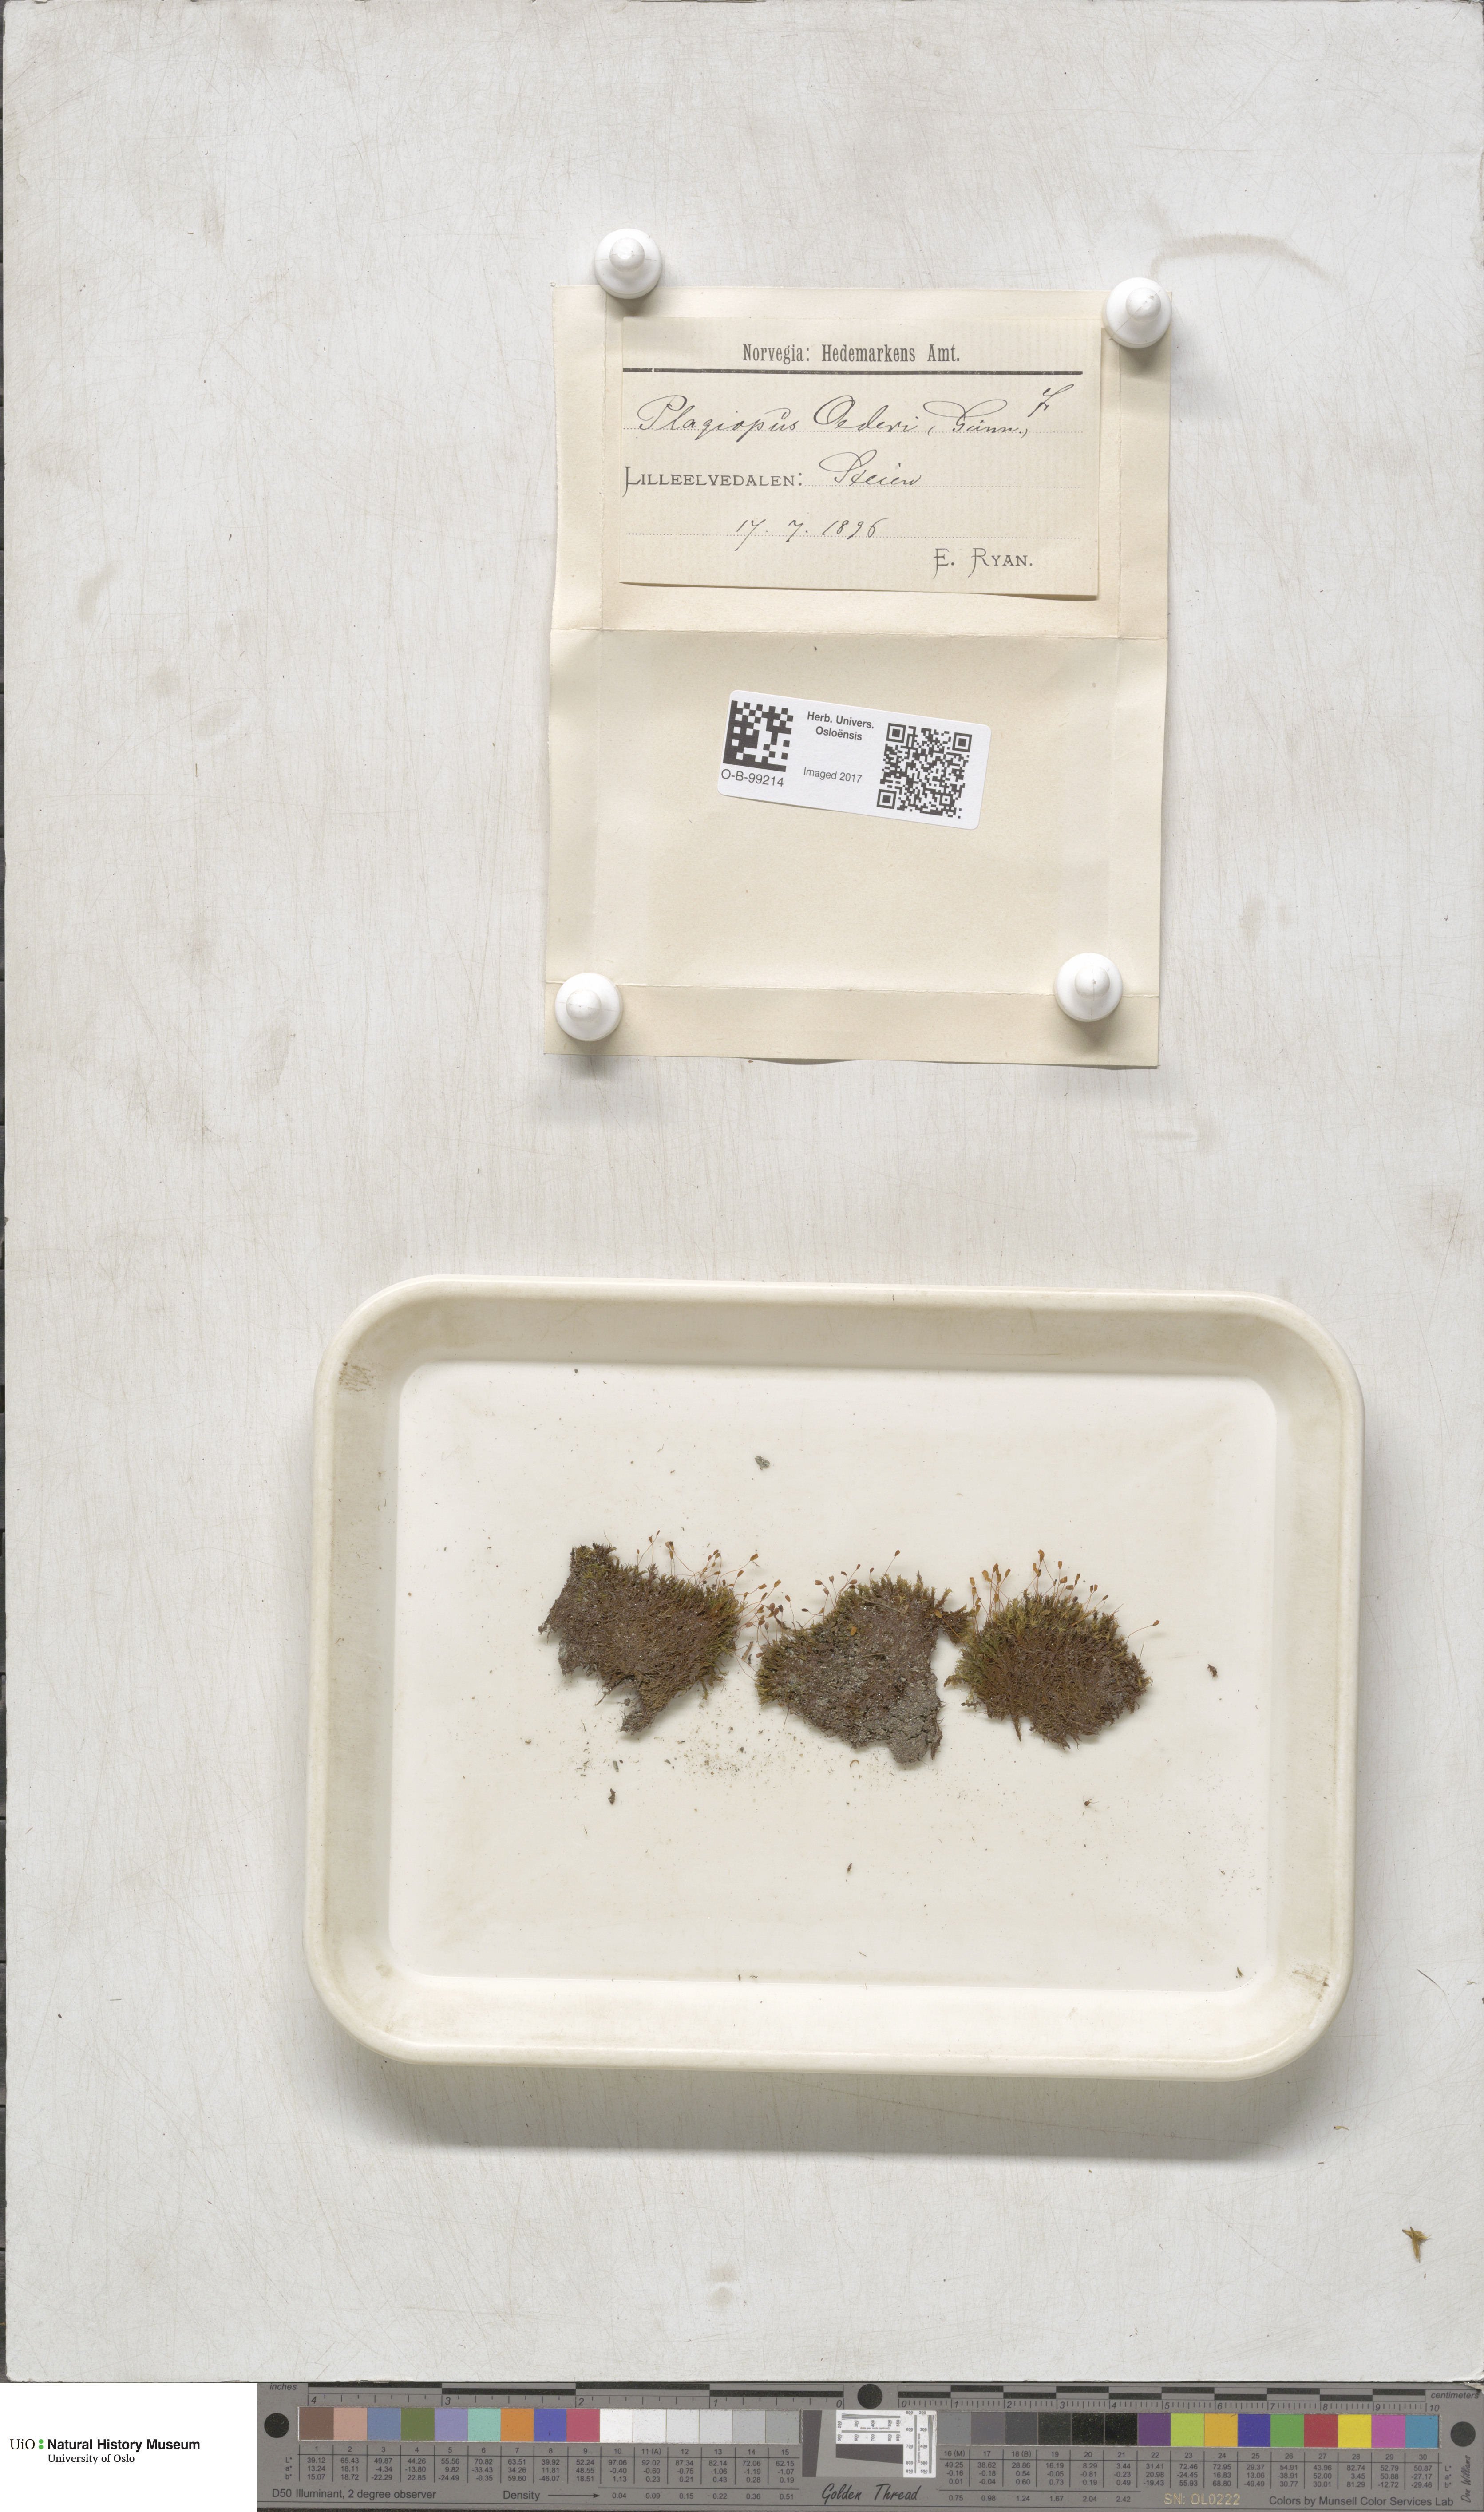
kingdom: Plantae
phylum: Bryophyta
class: Bryopsida
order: Bartramiales
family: Bartramiaceae
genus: Plagiopus
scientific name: Plagiopus oederianus
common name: Oeder's apple moss
